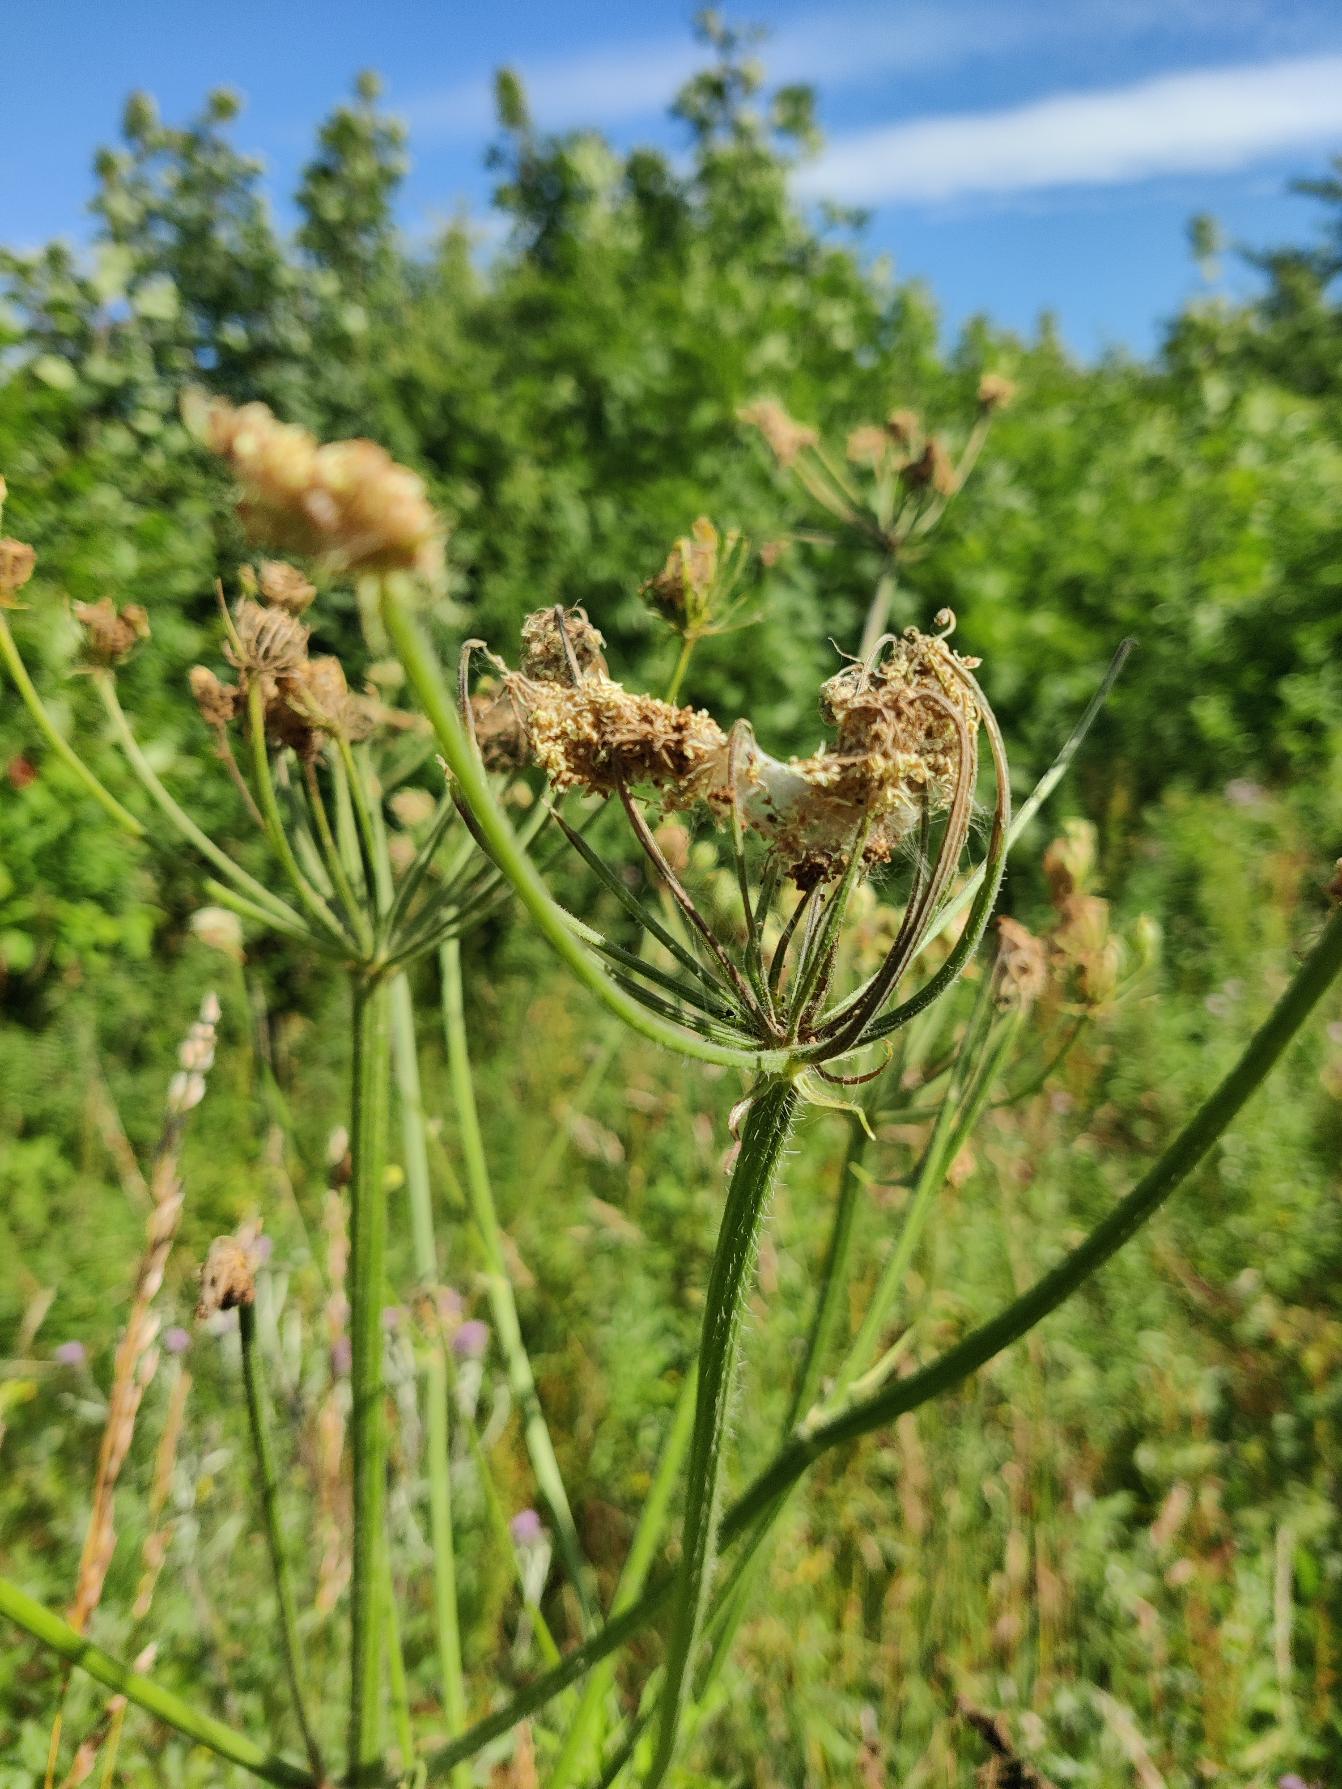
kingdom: Plantae
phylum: Tracheophyta
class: Magnoliopsida
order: Apiales
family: Apiaceae
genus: Heracleum
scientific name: Heracleum sphondylium
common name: Almindelig bjørneklo
